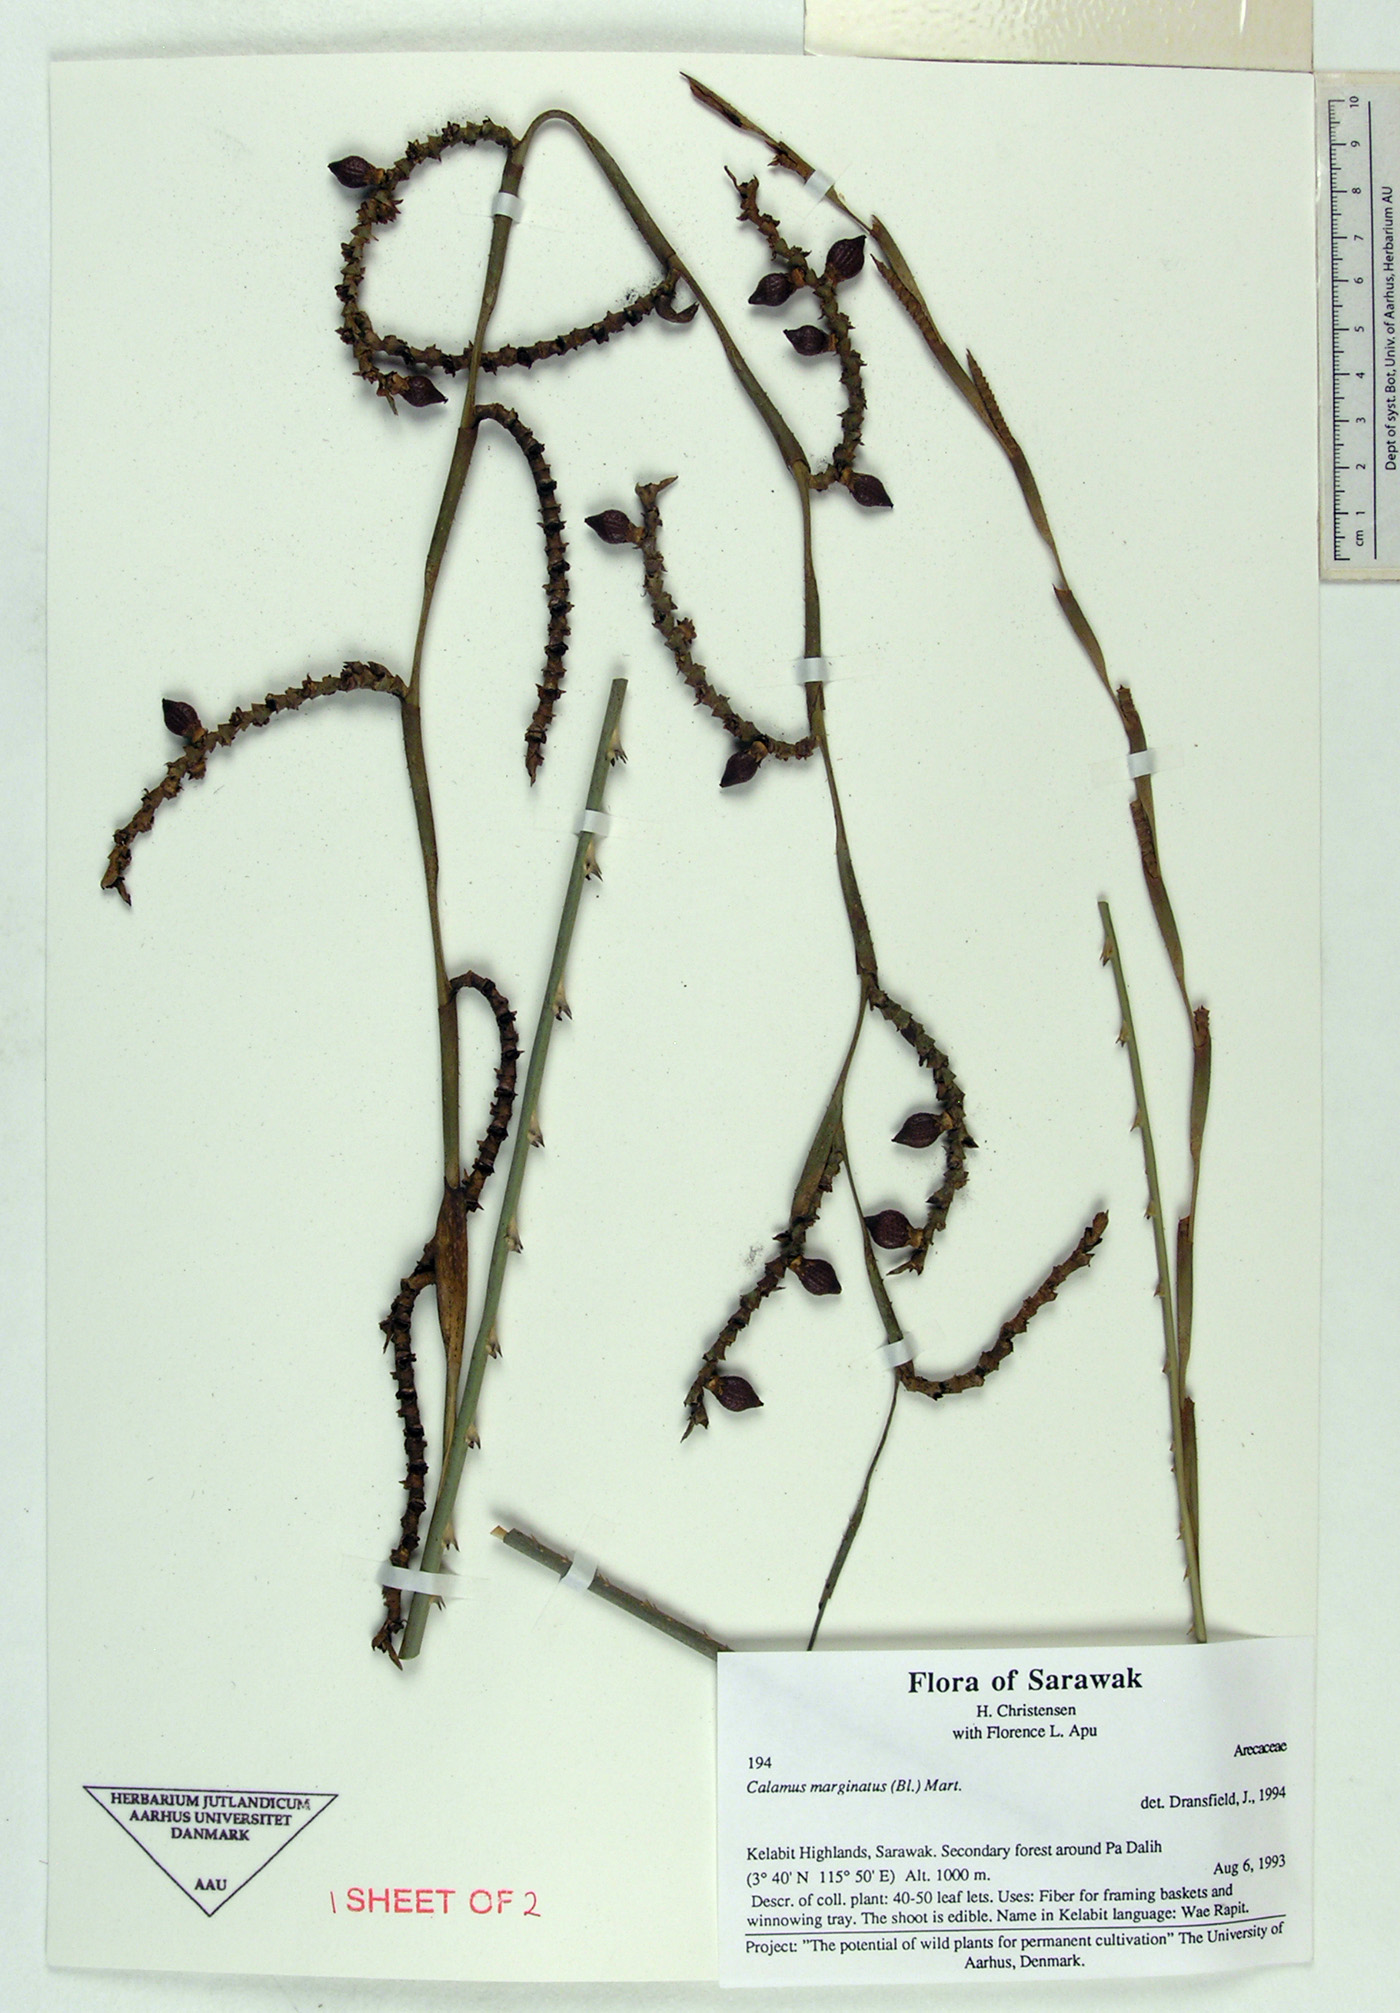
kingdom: Plantae
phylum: Tracheophyta
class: Liliopsida
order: Arecales
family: Arecaceae
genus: Calamus
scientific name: Calamus marginatus
